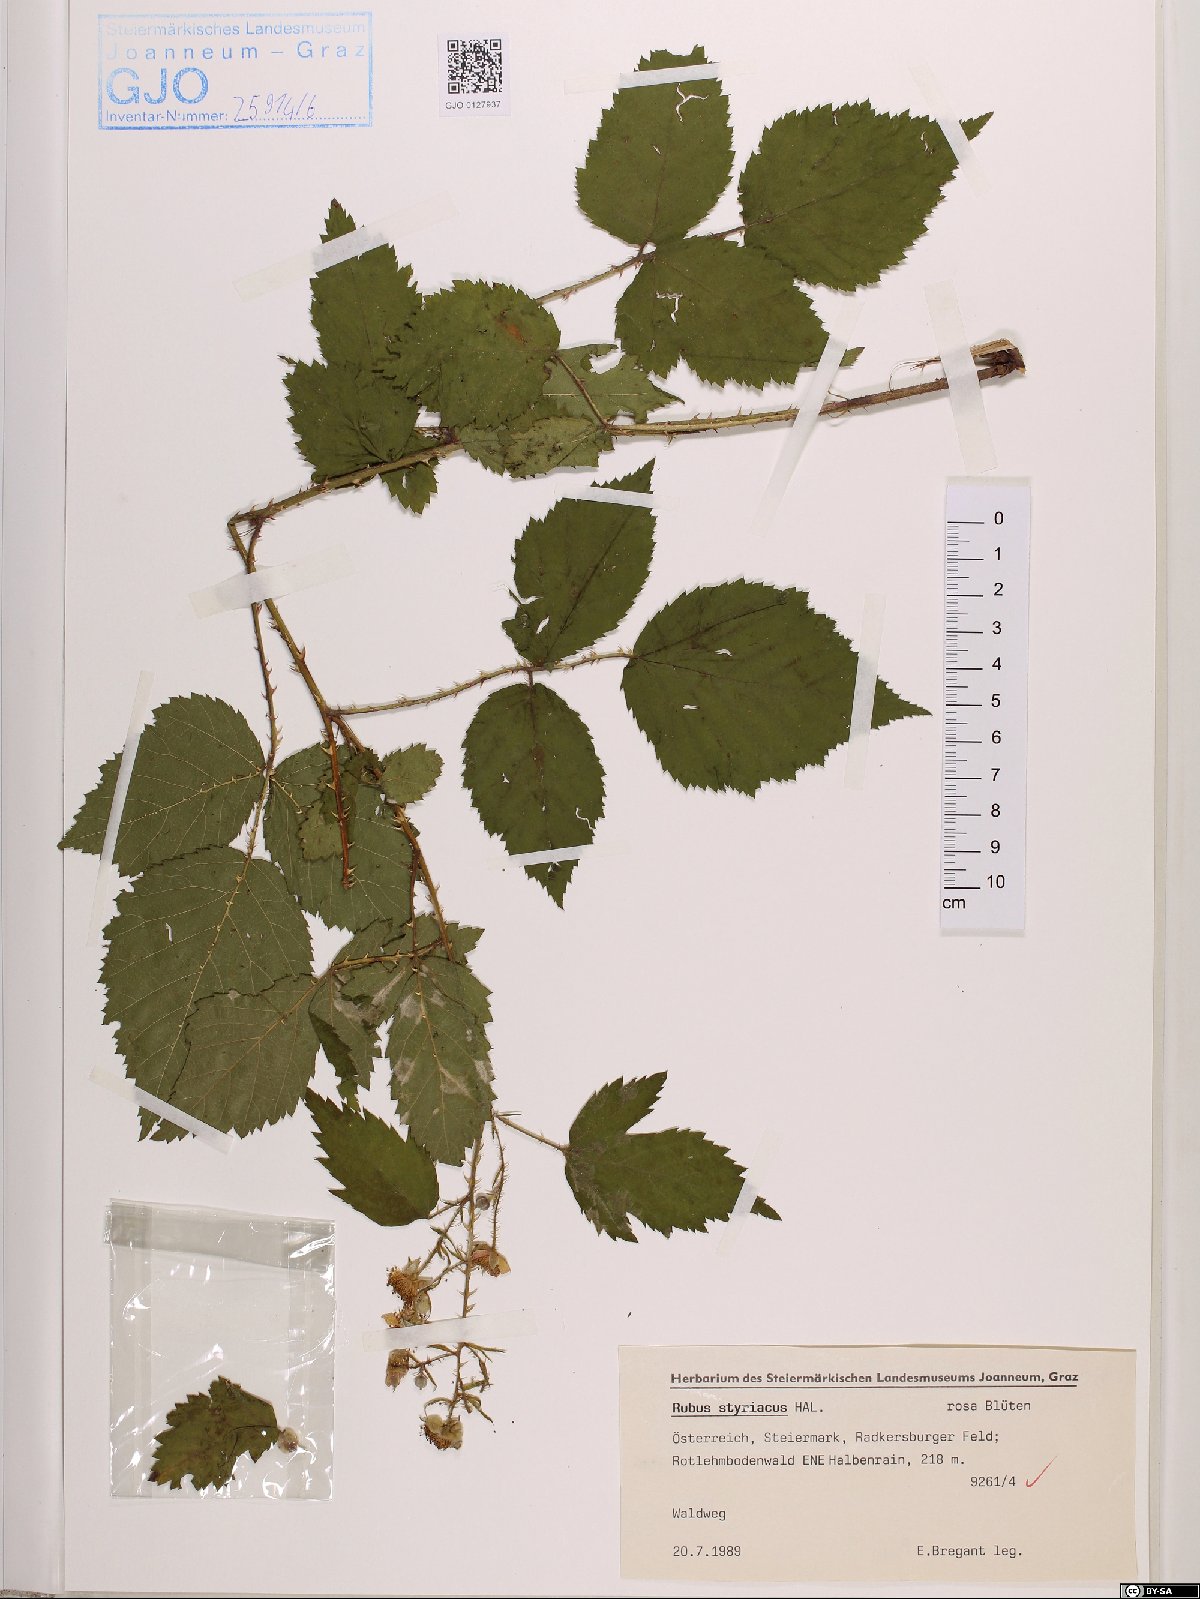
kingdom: Plantae
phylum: Tracheophyta
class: Magnoliopsida
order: Rosales
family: Rosaceae
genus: Rubus
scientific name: Rubus styriacus
